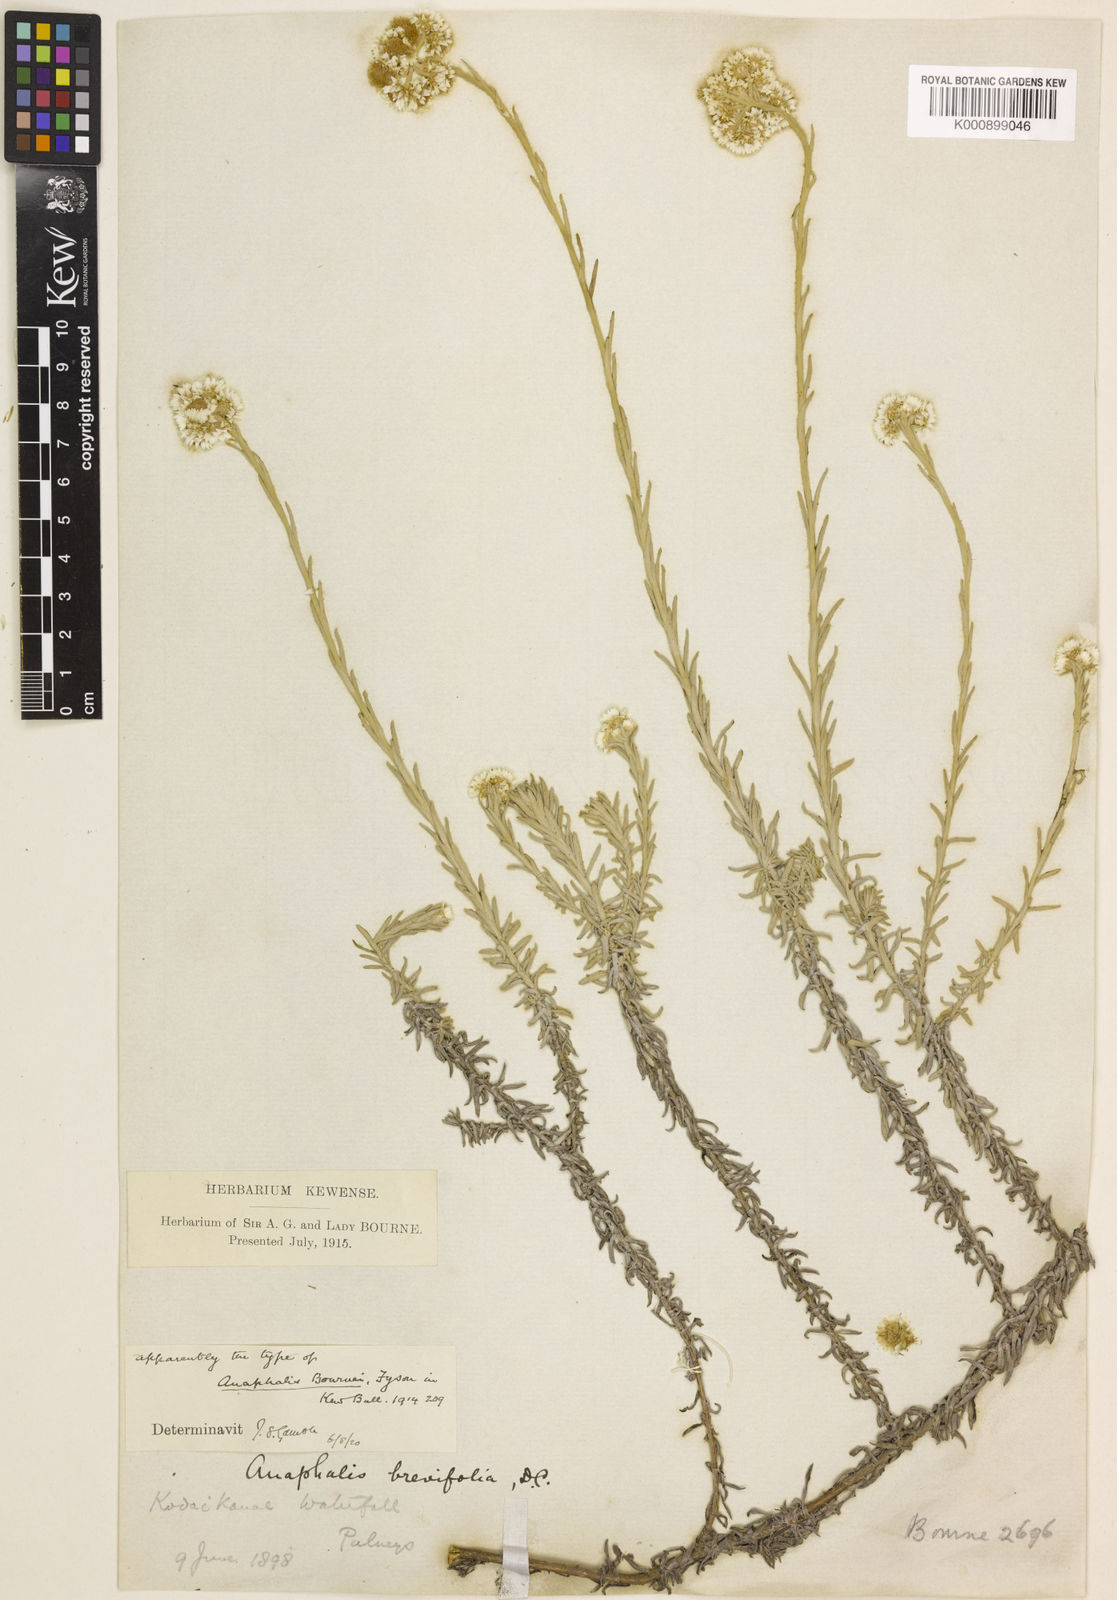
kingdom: Plantae
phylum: Tracheophyta
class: Magnoliopsida
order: Asterales
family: Asteraceae
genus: Anaphalis
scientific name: Anaphalis bournei
